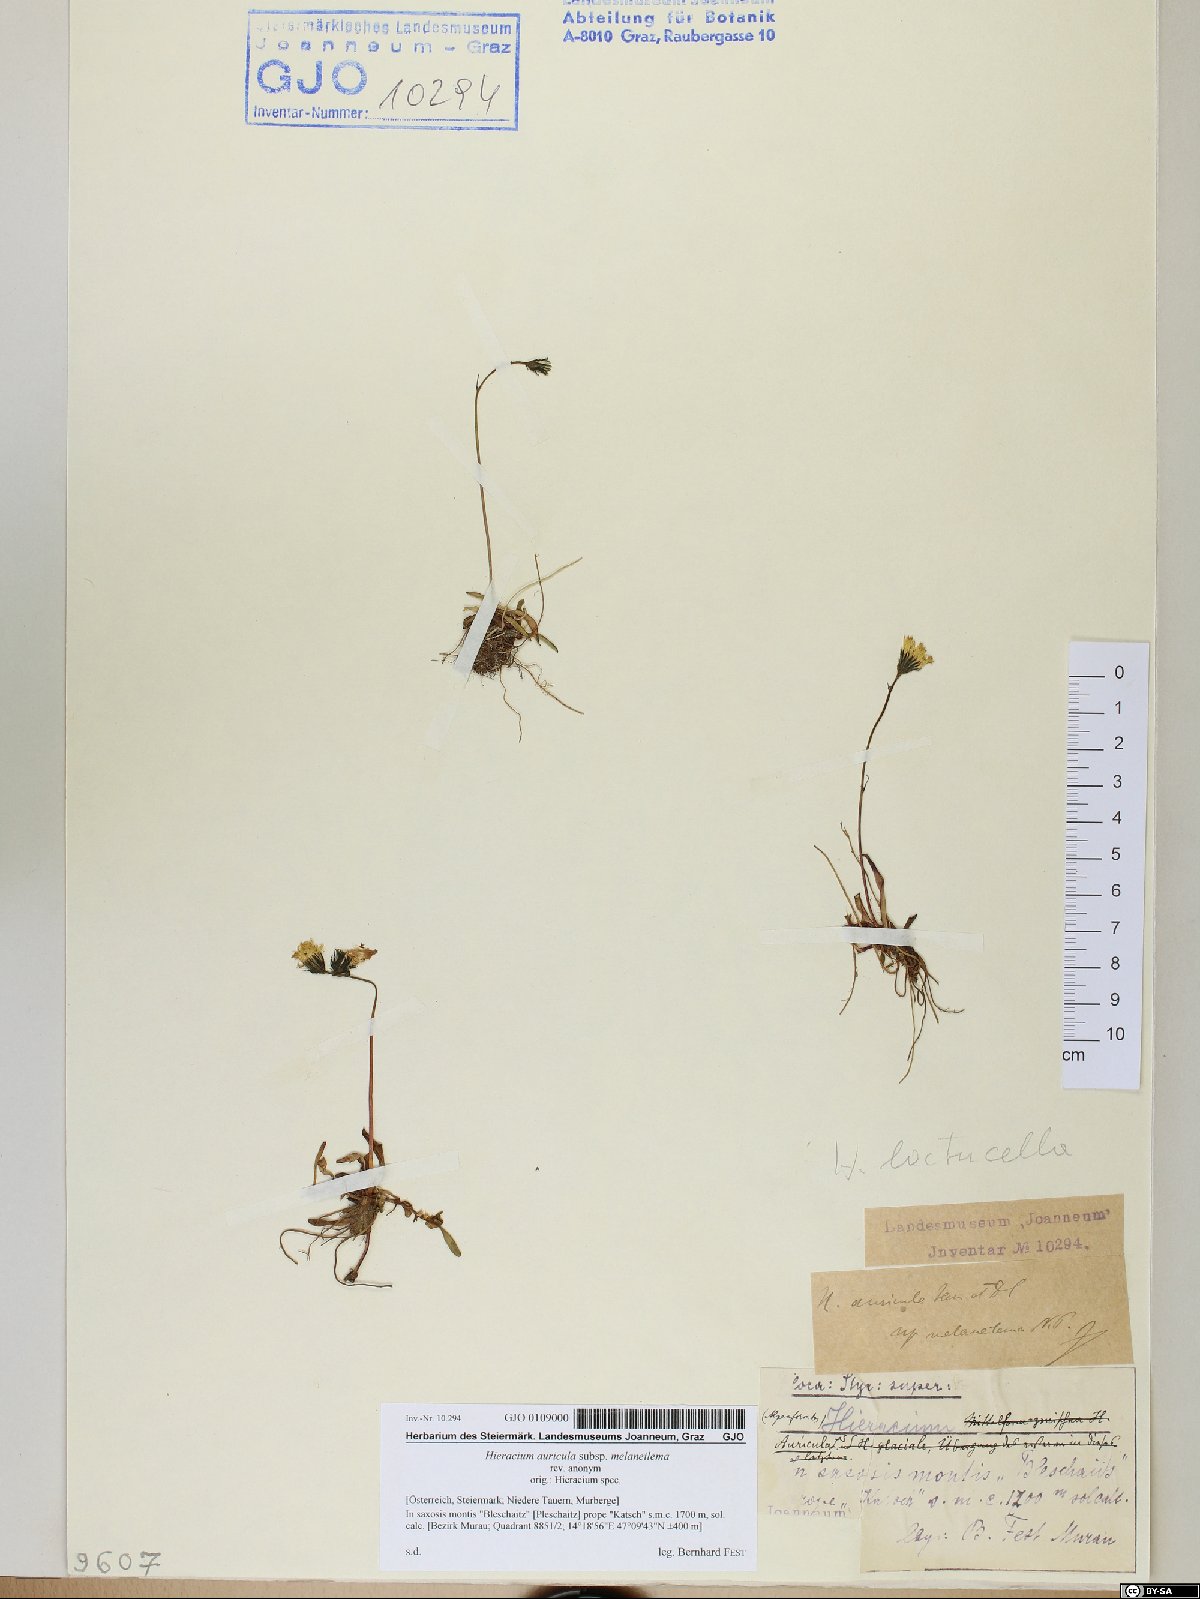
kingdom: Plantae
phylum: Tracheophyta
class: Magnoliopsida
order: Asterales
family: Asteraceae
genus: Pilosella
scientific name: Pilosella lactucella
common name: Glaucous fox-and-cubs
